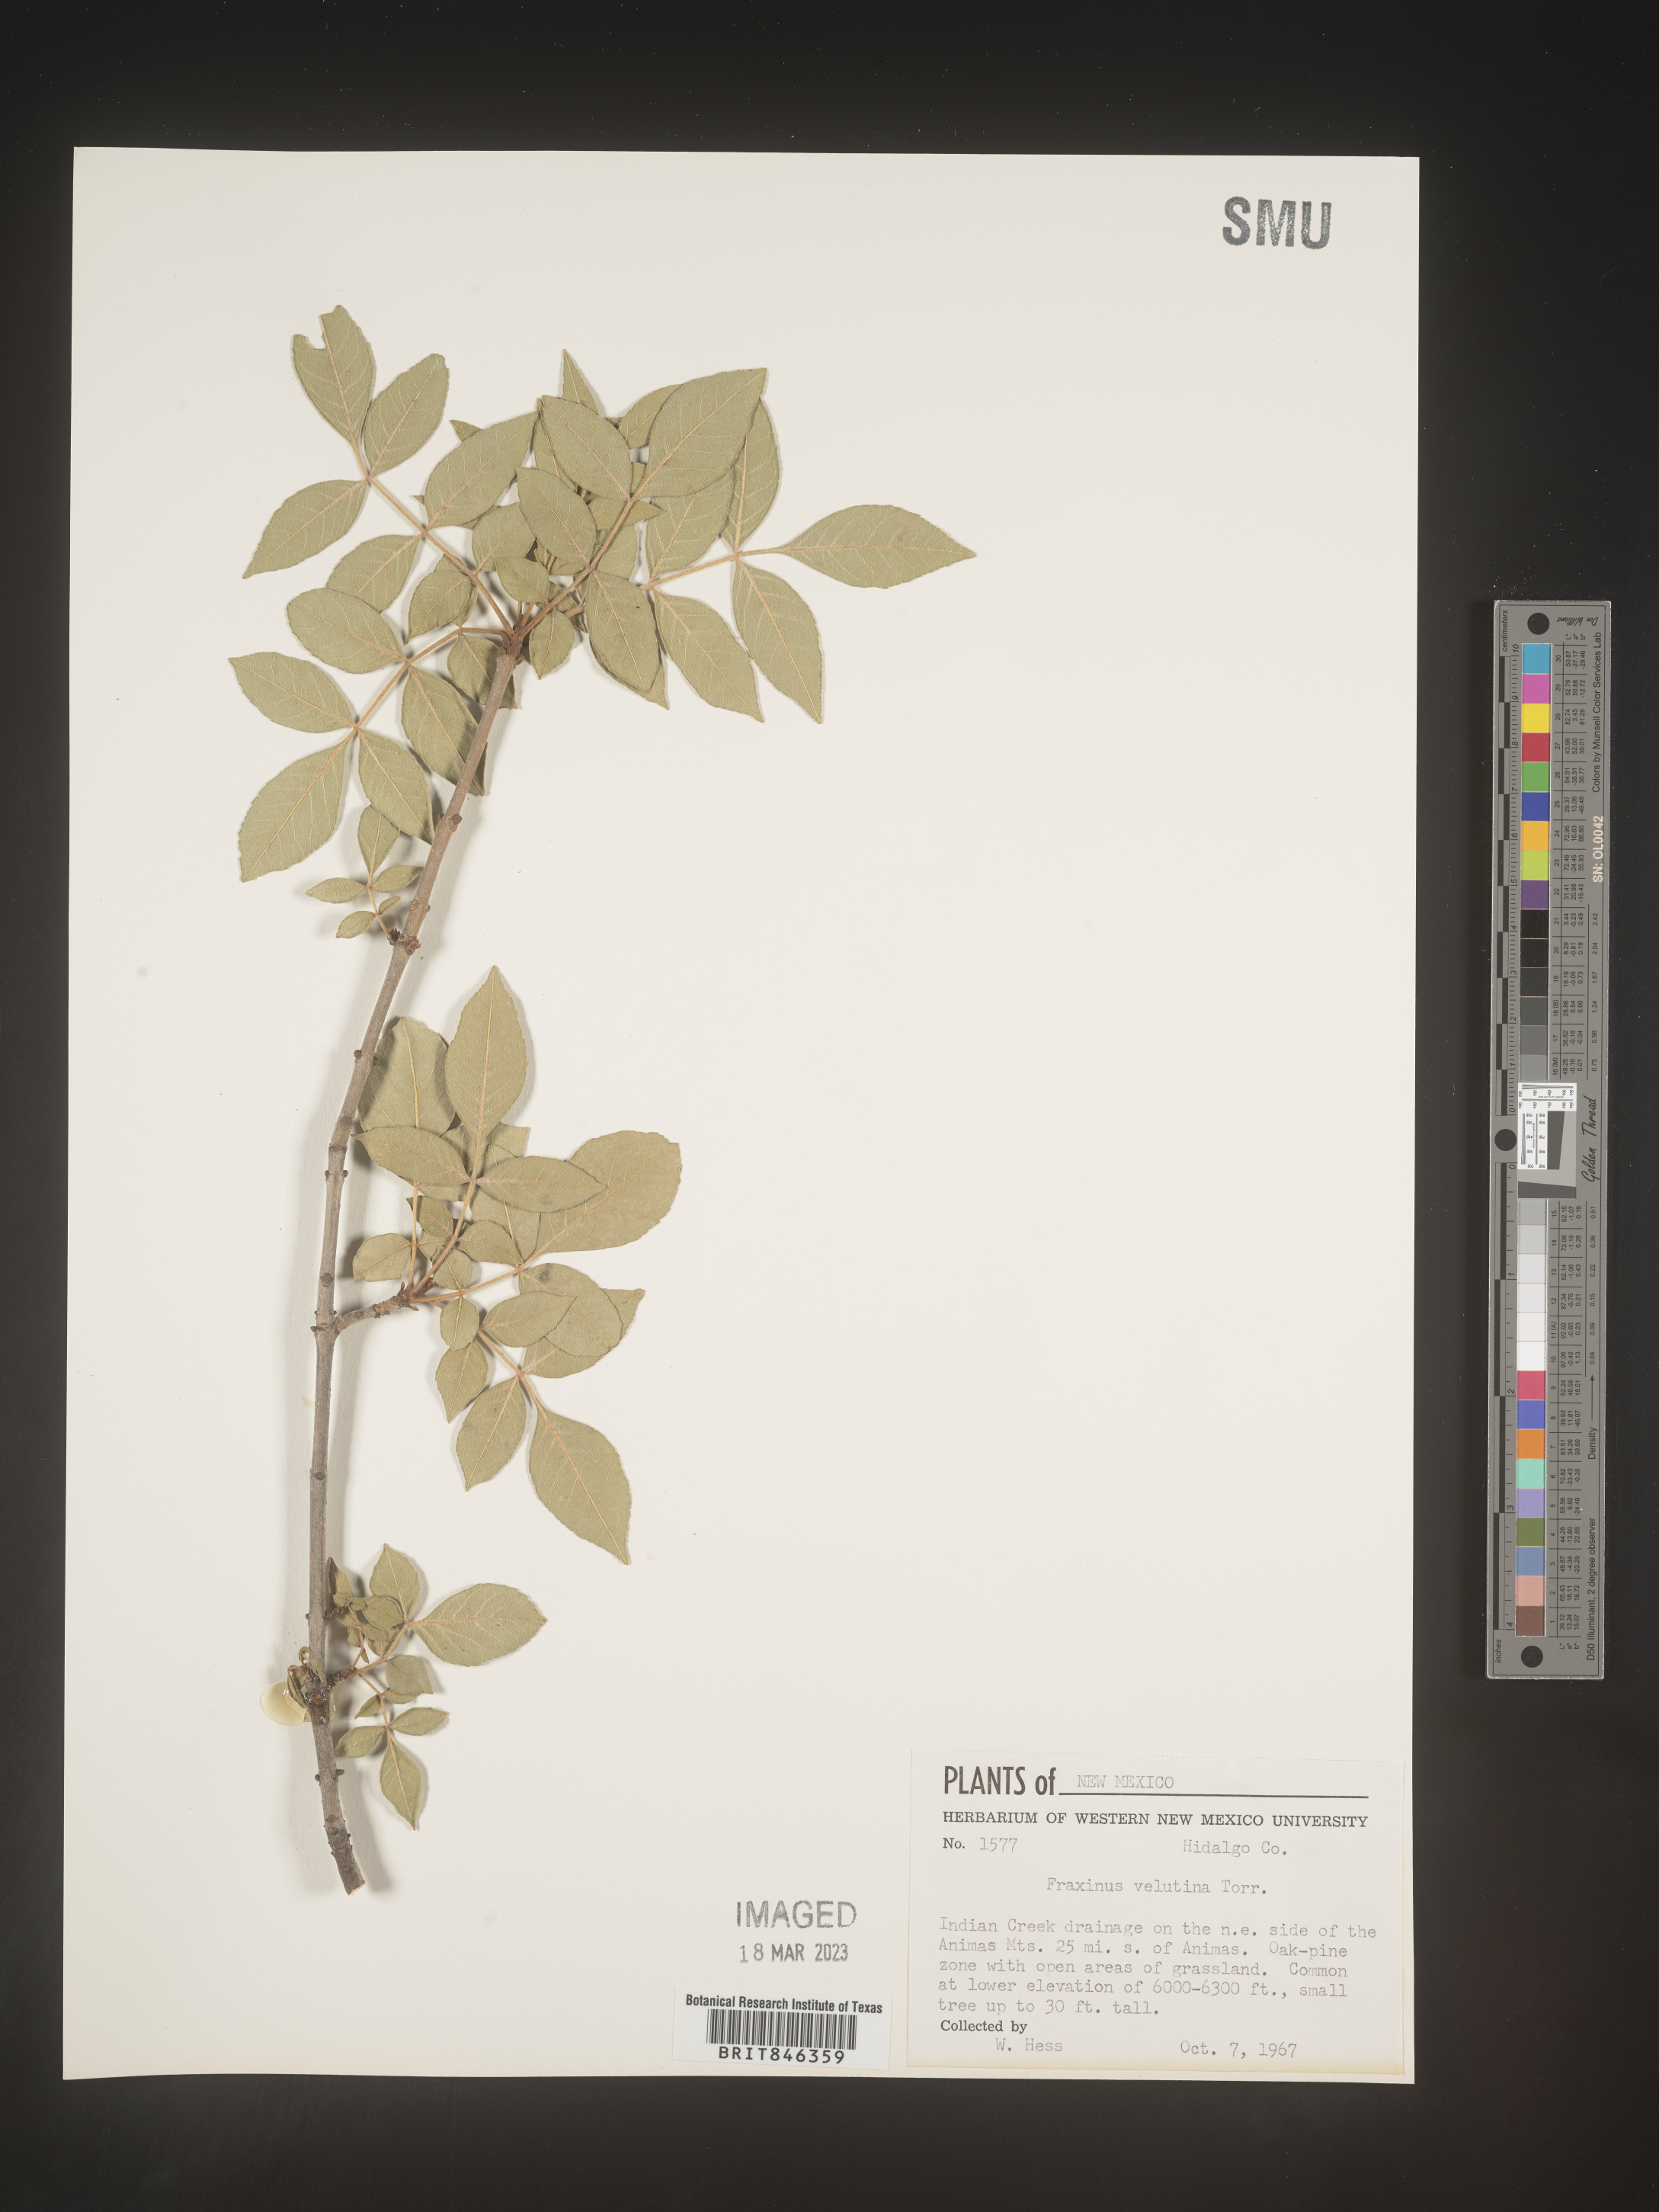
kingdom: Plantae
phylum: Tracheophyta
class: Magnoliopsida
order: Lamiales
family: Oleaceae
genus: Fraxinus
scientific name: Fraxinus velutina
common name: Arizon ash
